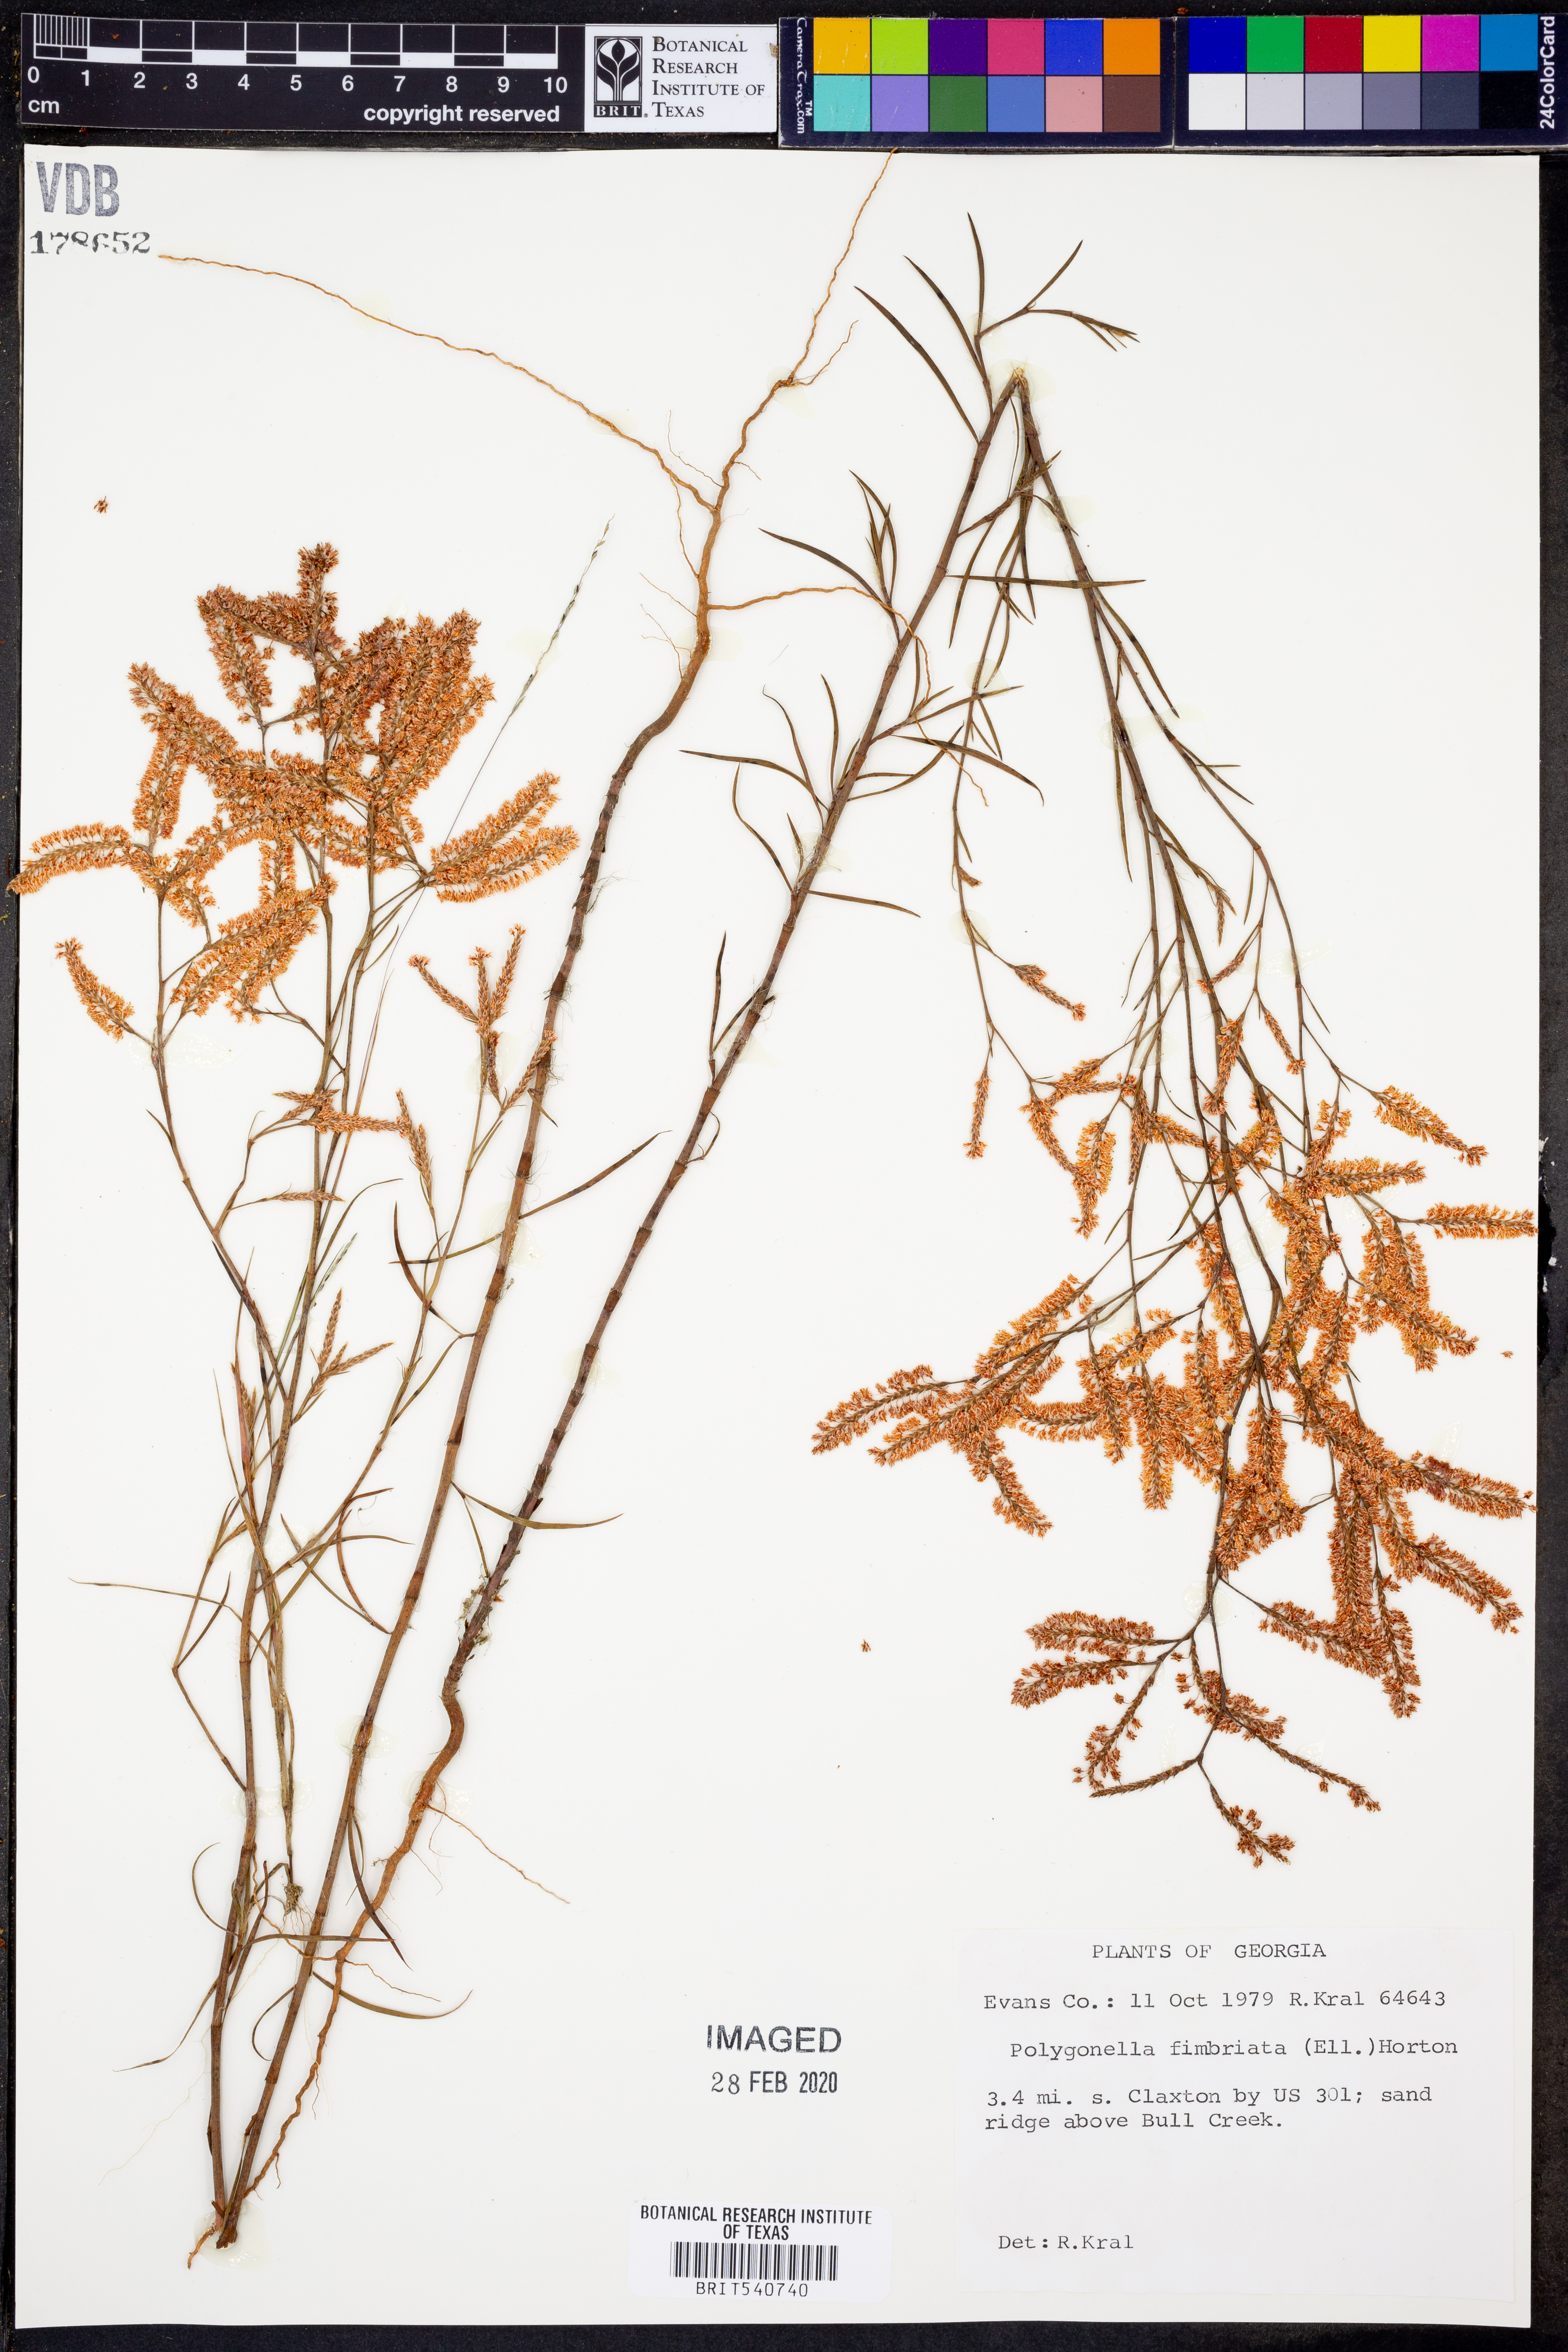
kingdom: Plantae
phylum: Tracheophyta
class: Magnoliopsida
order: Caryophyllales
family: Polygonaceae
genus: Polygonella
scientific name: Polygonella fimbriata
